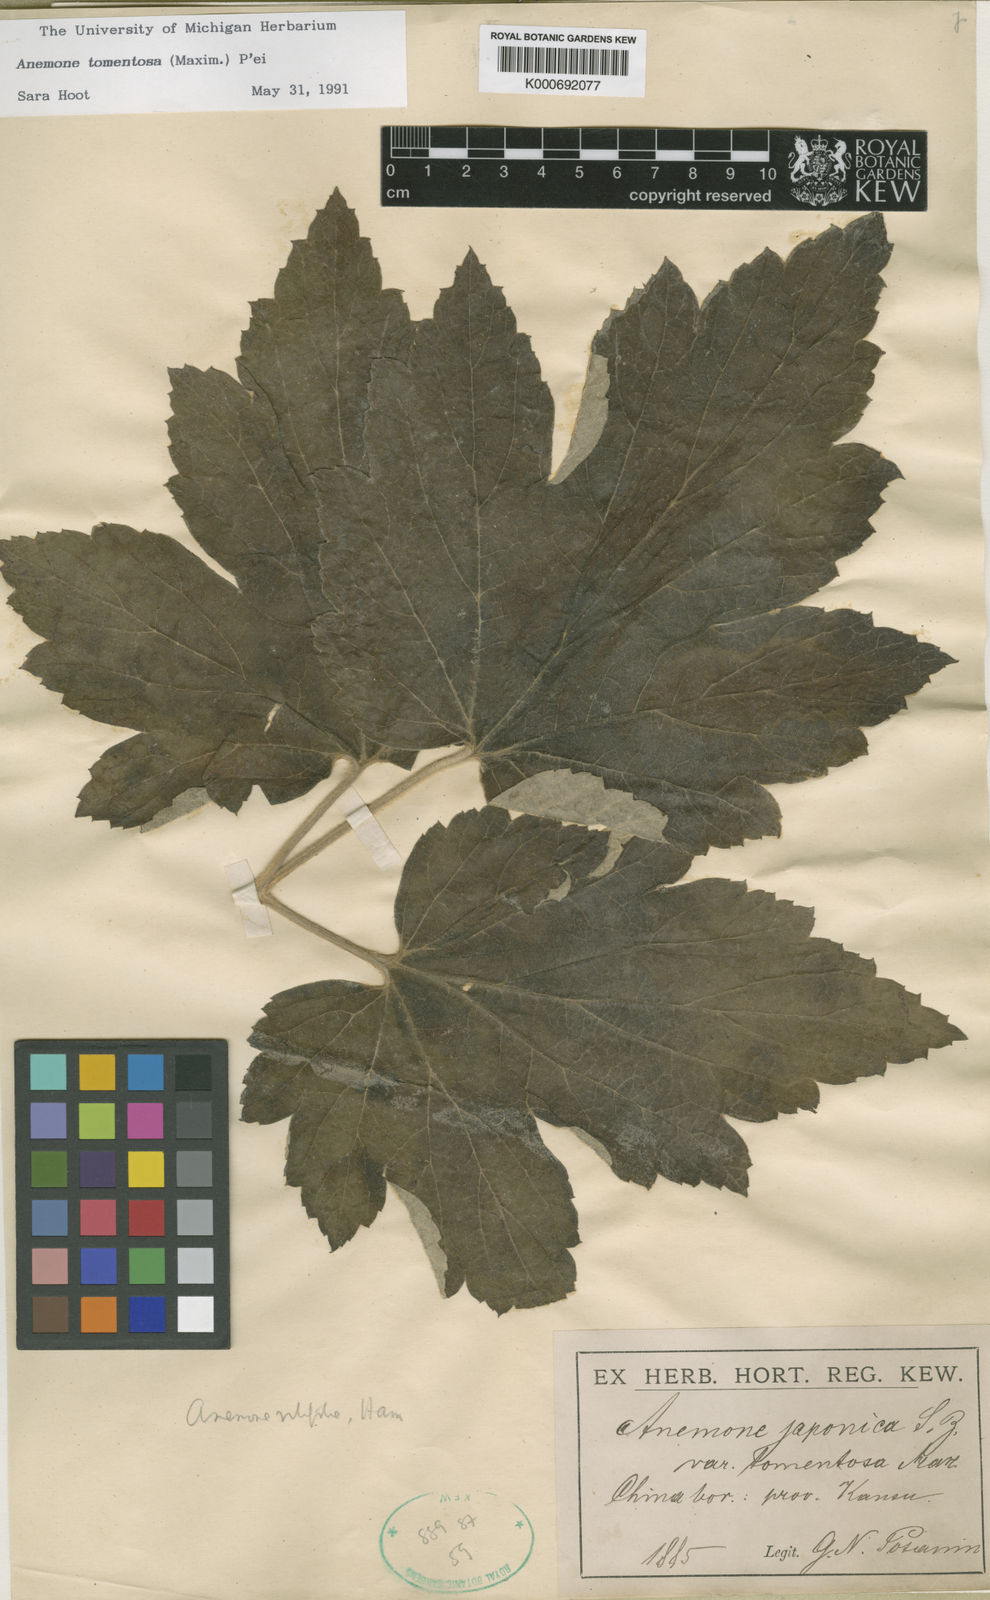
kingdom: Plantae
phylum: Tracheophyta
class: Magnoliopsida
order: Ranunculales
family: Ranunculaceae
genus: Eriocapitella
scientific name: Eriocapitella vitifolia
